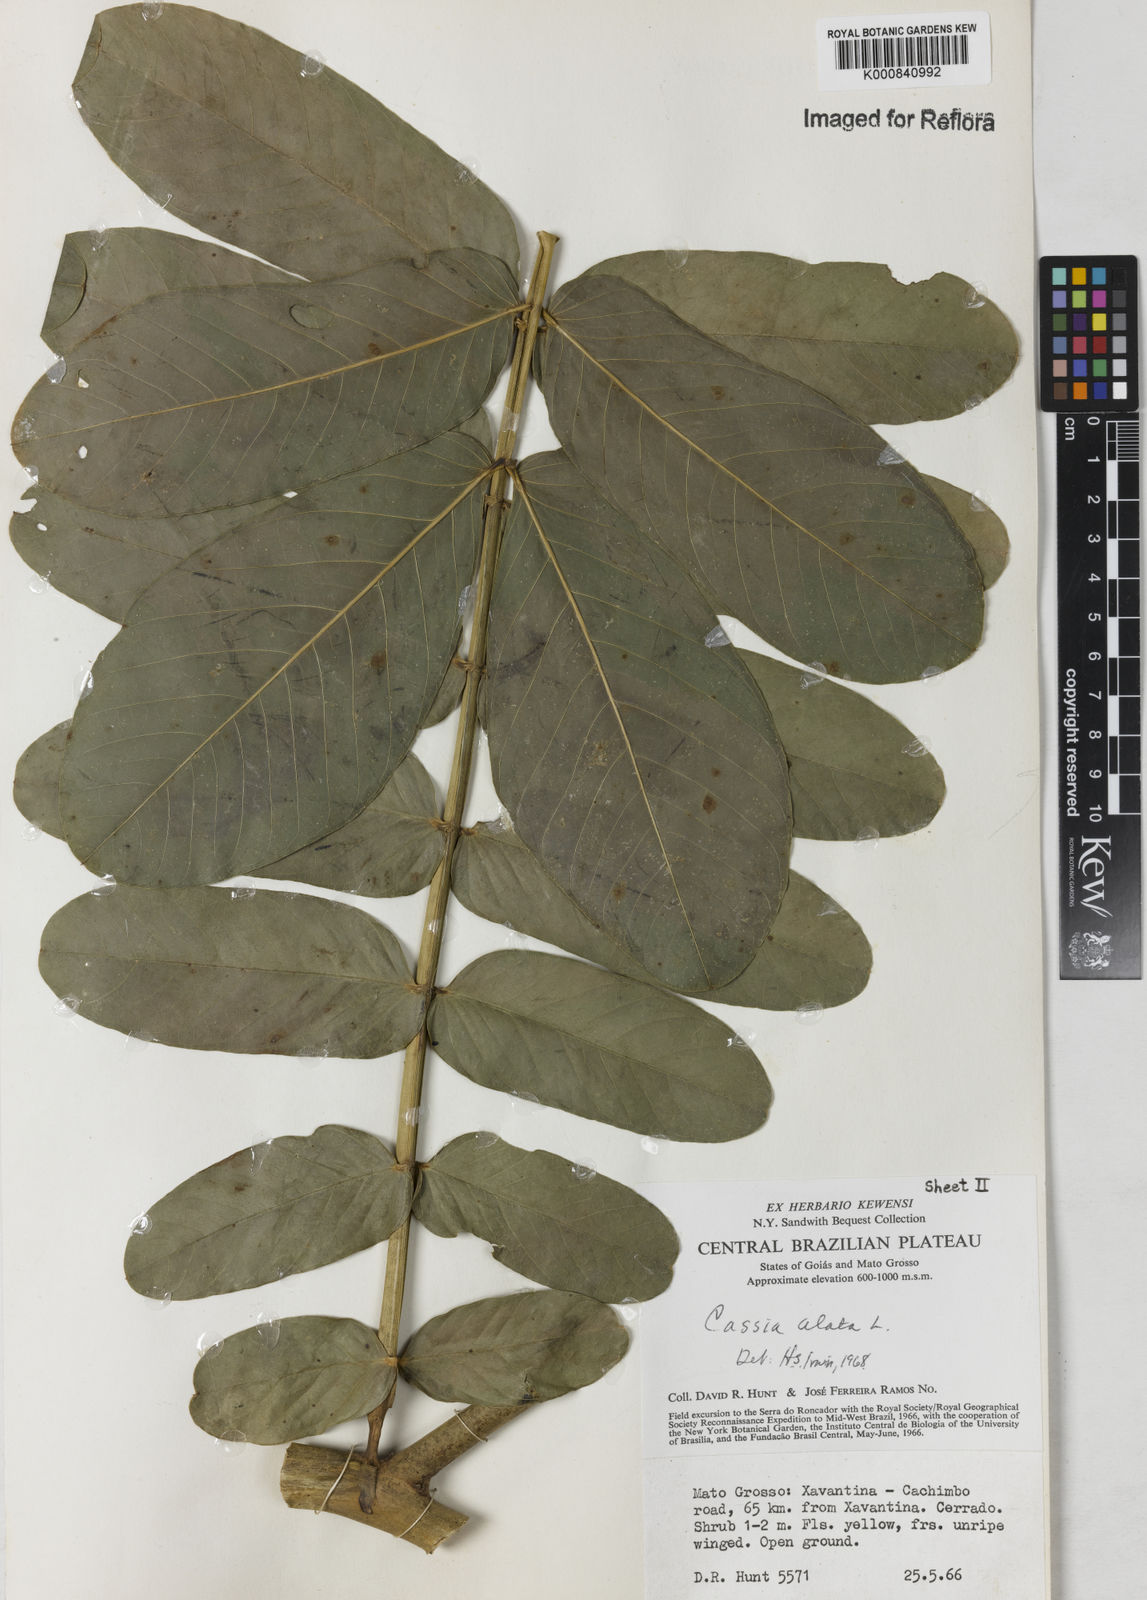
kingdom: Plantae
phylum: Tracheophyta
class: Magnoliopsida
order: Fabales
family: Fabaceae
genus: Senna
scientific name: Senna alata
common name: Emperor's candlesticks
